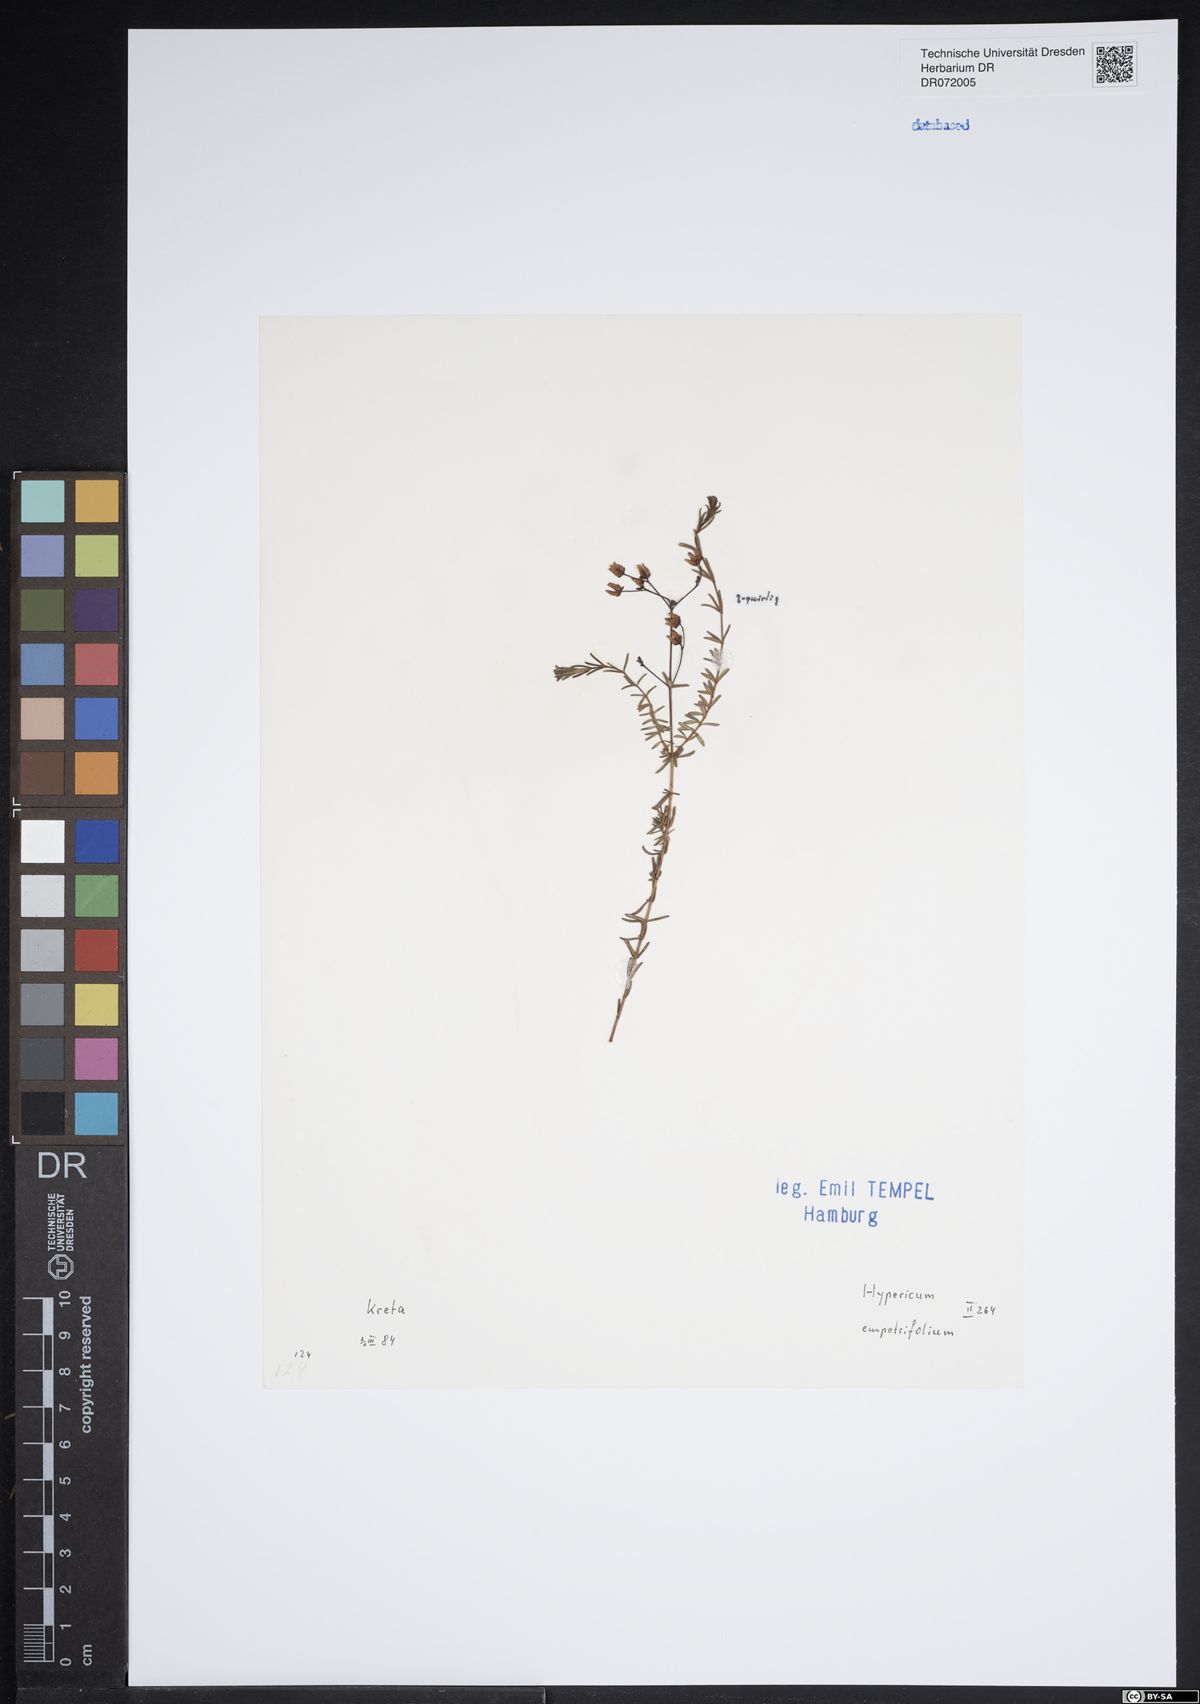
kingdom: Plantae
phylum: Tracheophyta
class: Magnoliopsida
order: Malpighiales
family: Hypericaceae
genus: Hypericum
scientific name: Hypericum empetrifolium
